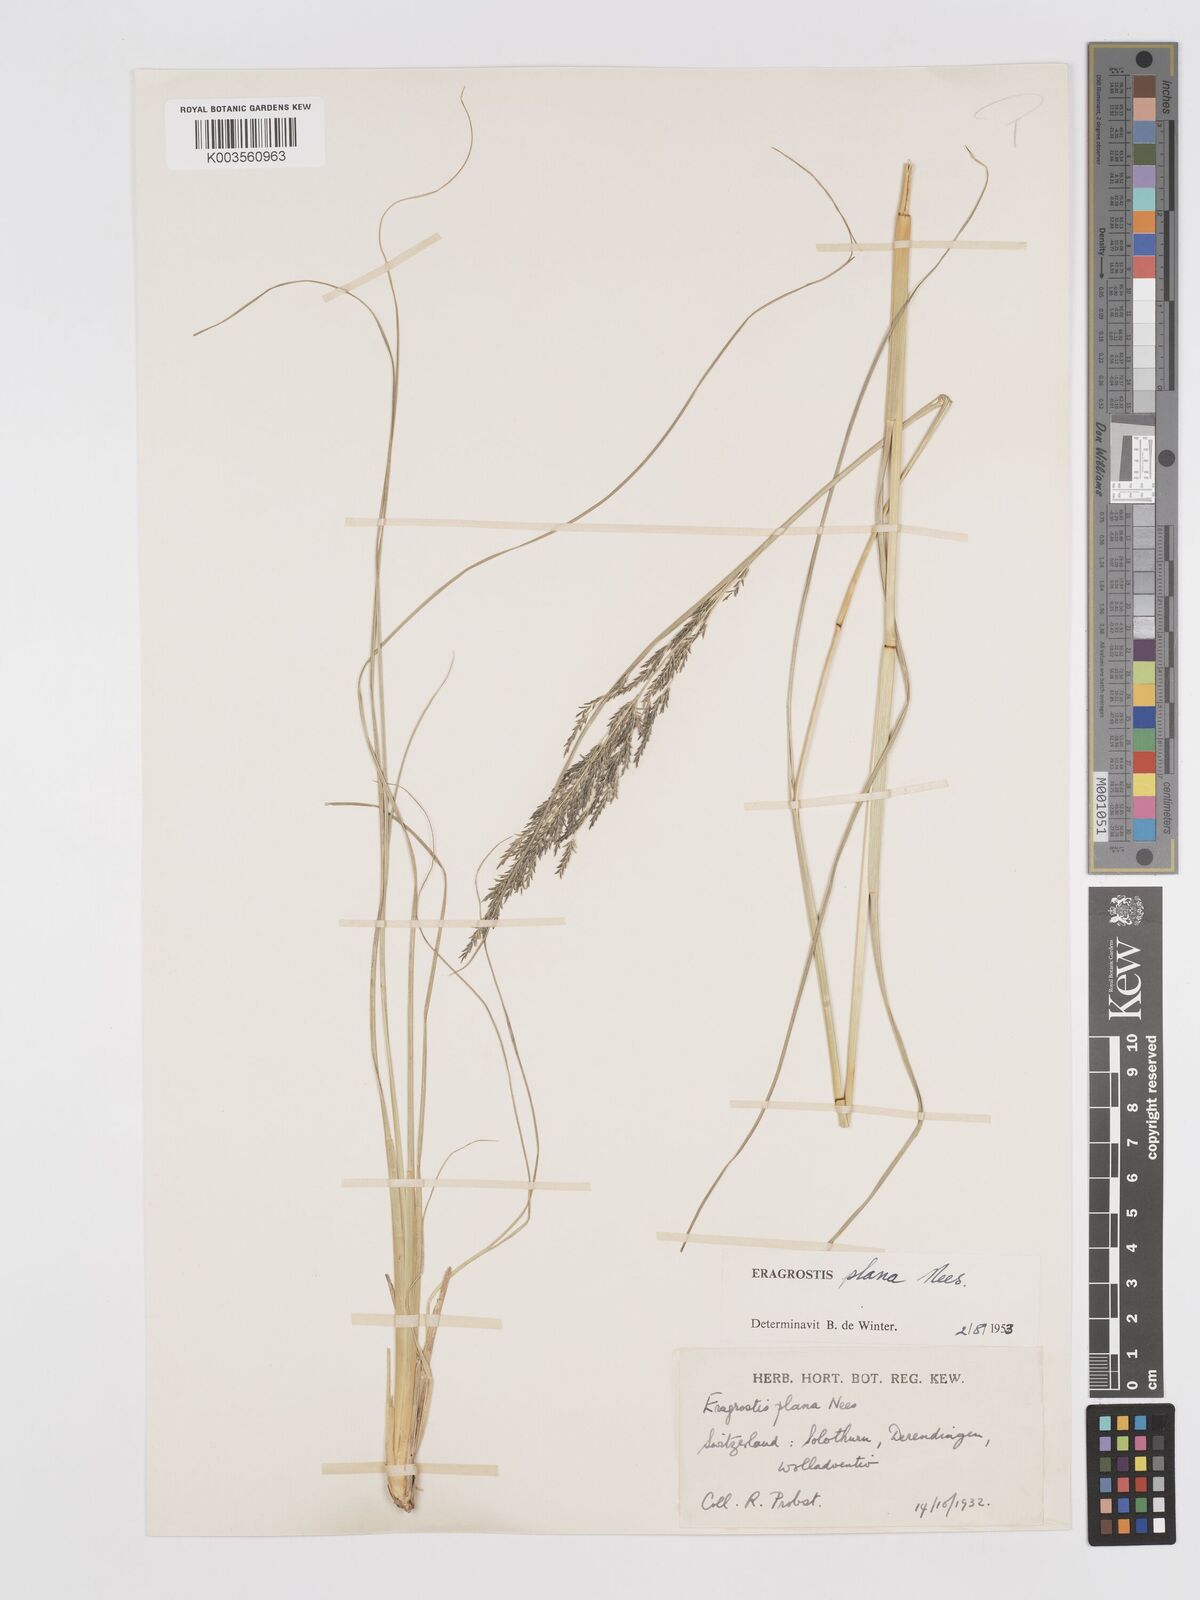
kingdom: Plantae
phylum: Tracheophyta
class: Liliopsida
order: Poales
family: Poaceae
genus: Eragrostis
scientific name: Eragrostis plana
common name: South african lovegrass
